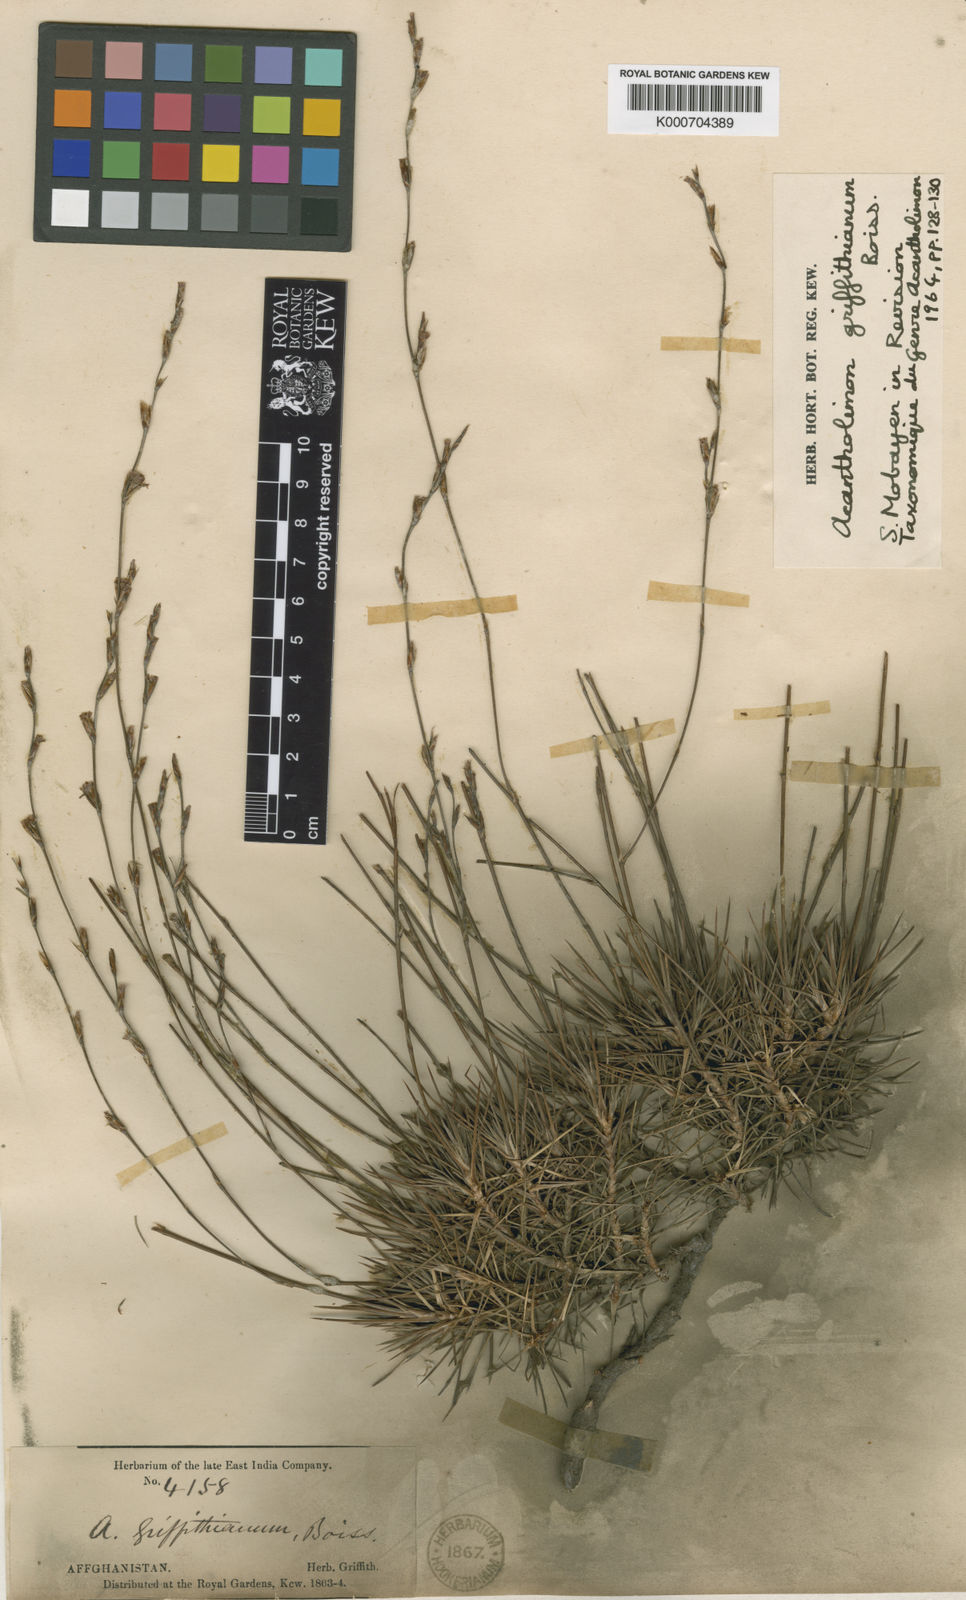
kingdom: Plantae
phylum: Tracheophyta
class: Magnoliopsida
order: Caryophyllales
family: Plumbaginaceae
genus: Acantholimon
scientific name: Acantholimon griffithianum
